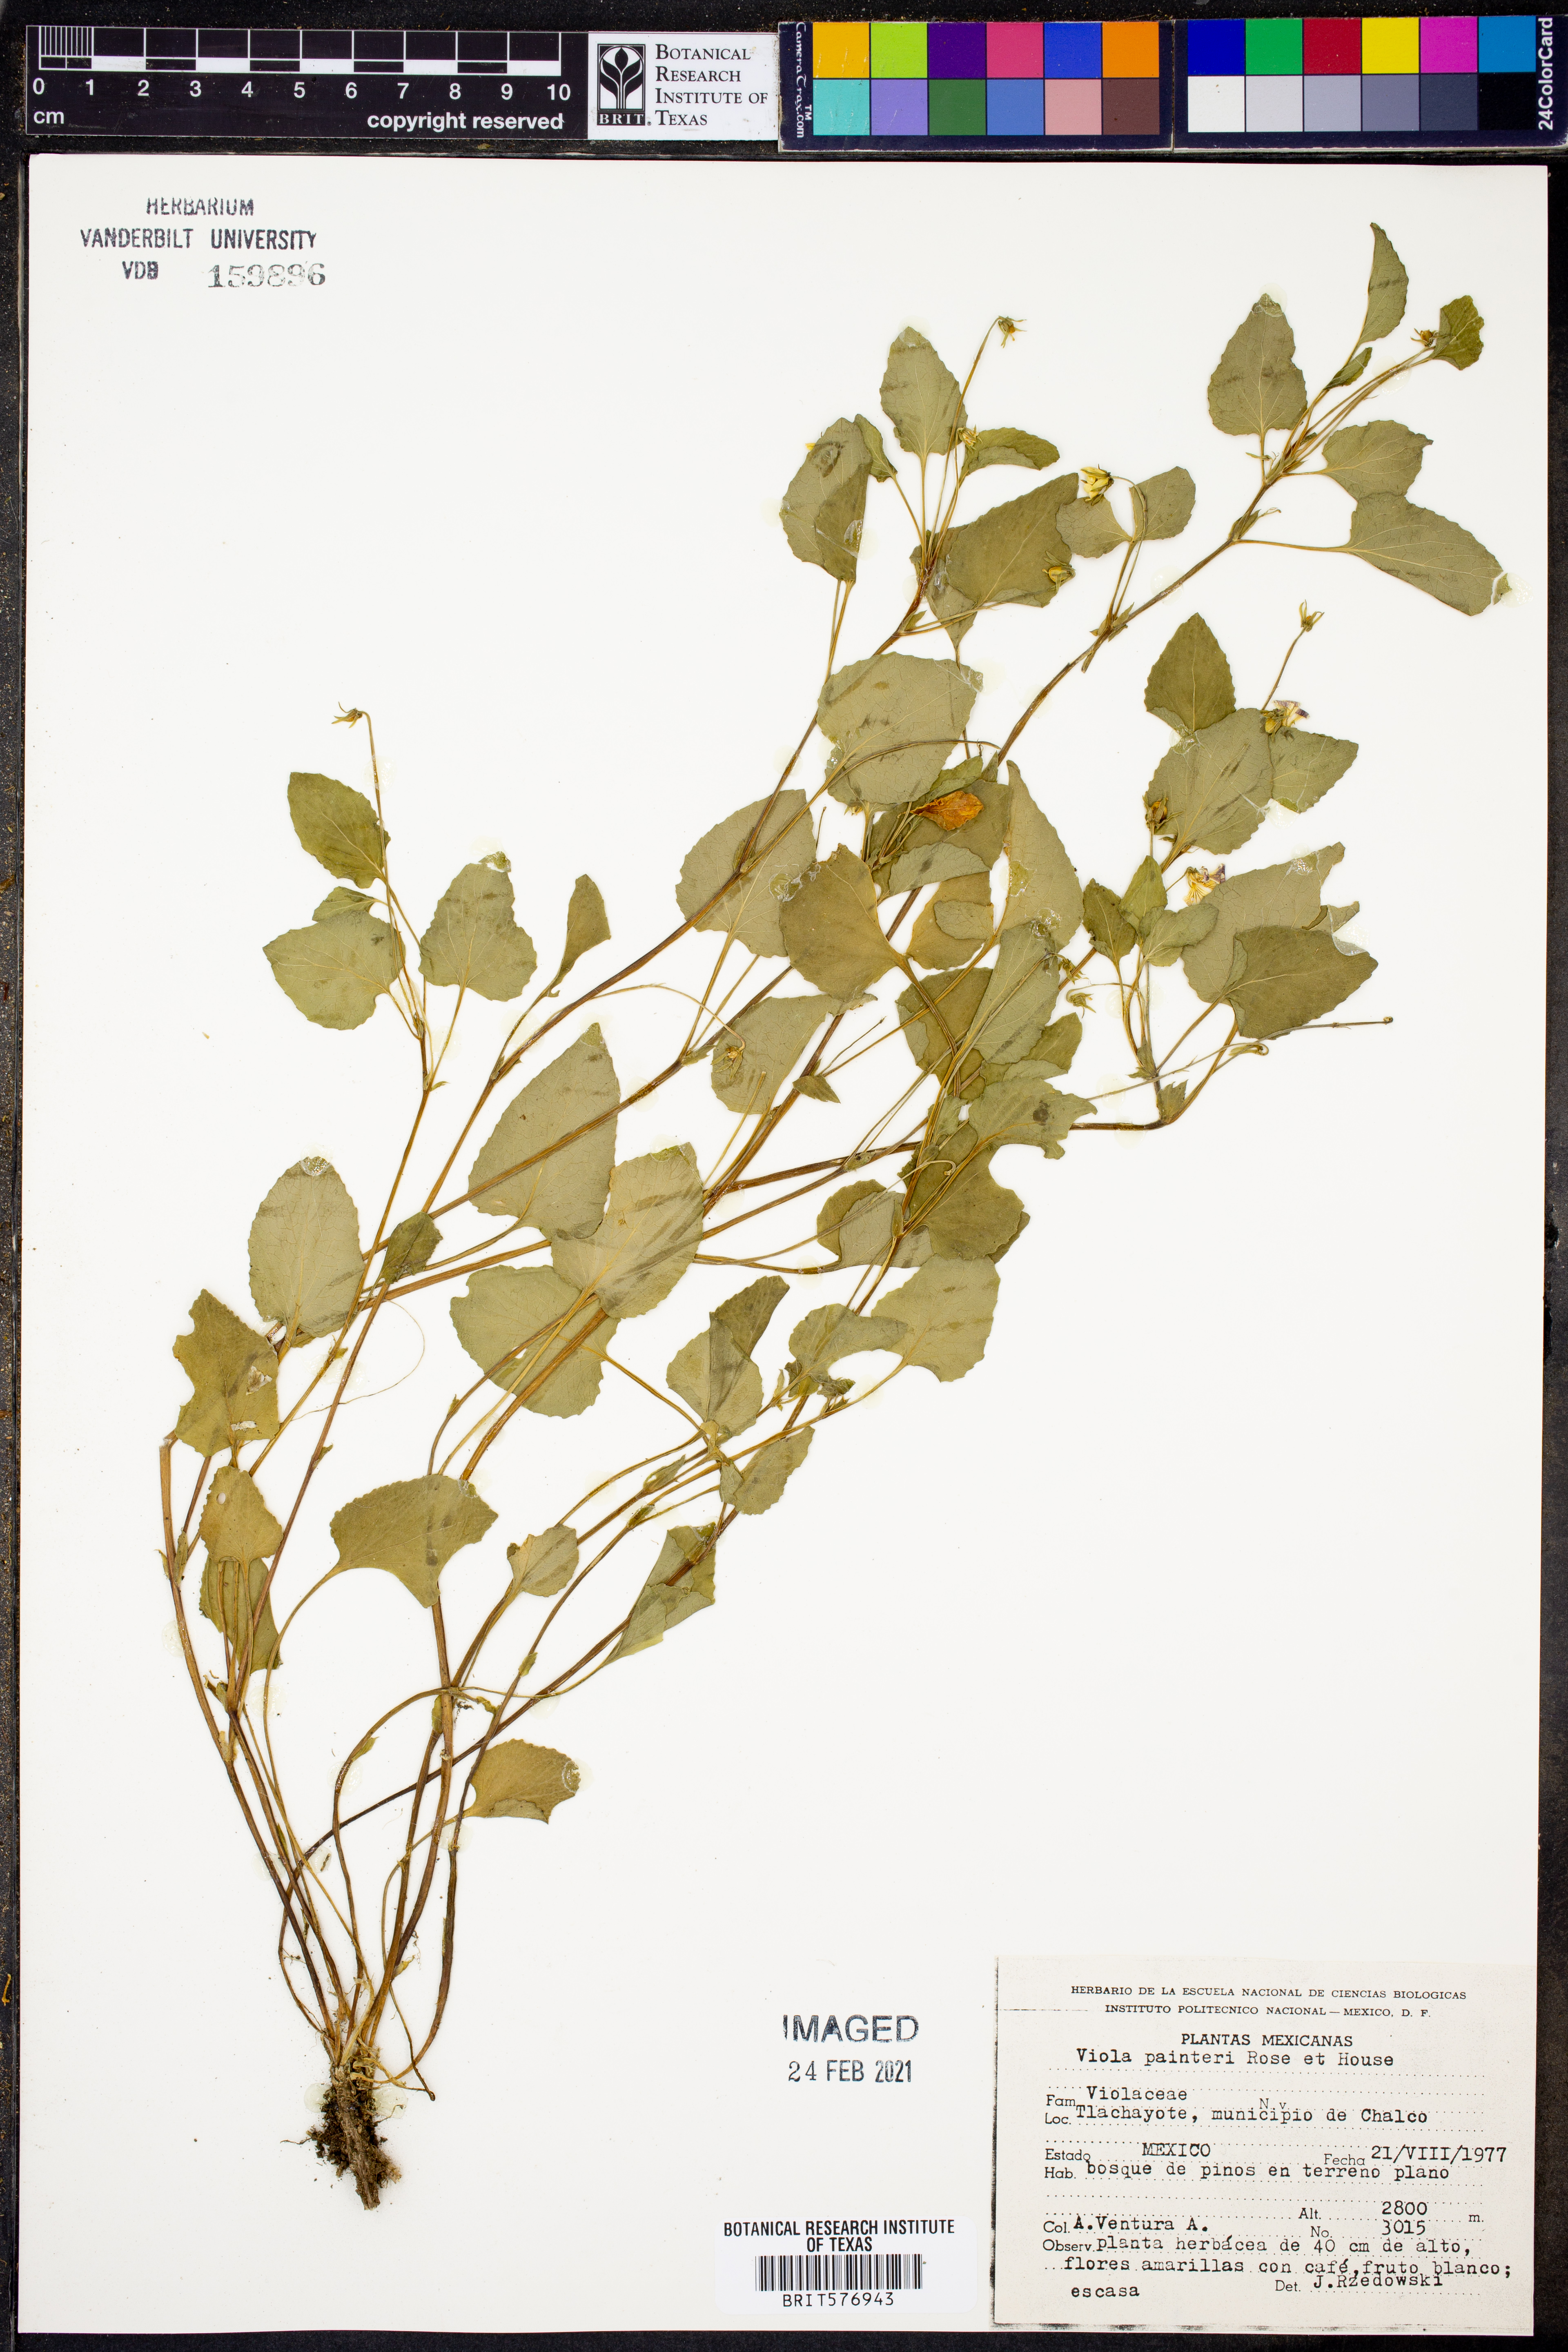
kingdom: Plantae
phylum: Tracheophyta
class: Magnoliopsida
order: Malpighiales
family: Violaceae
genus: Viola
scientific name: Viola painteri
